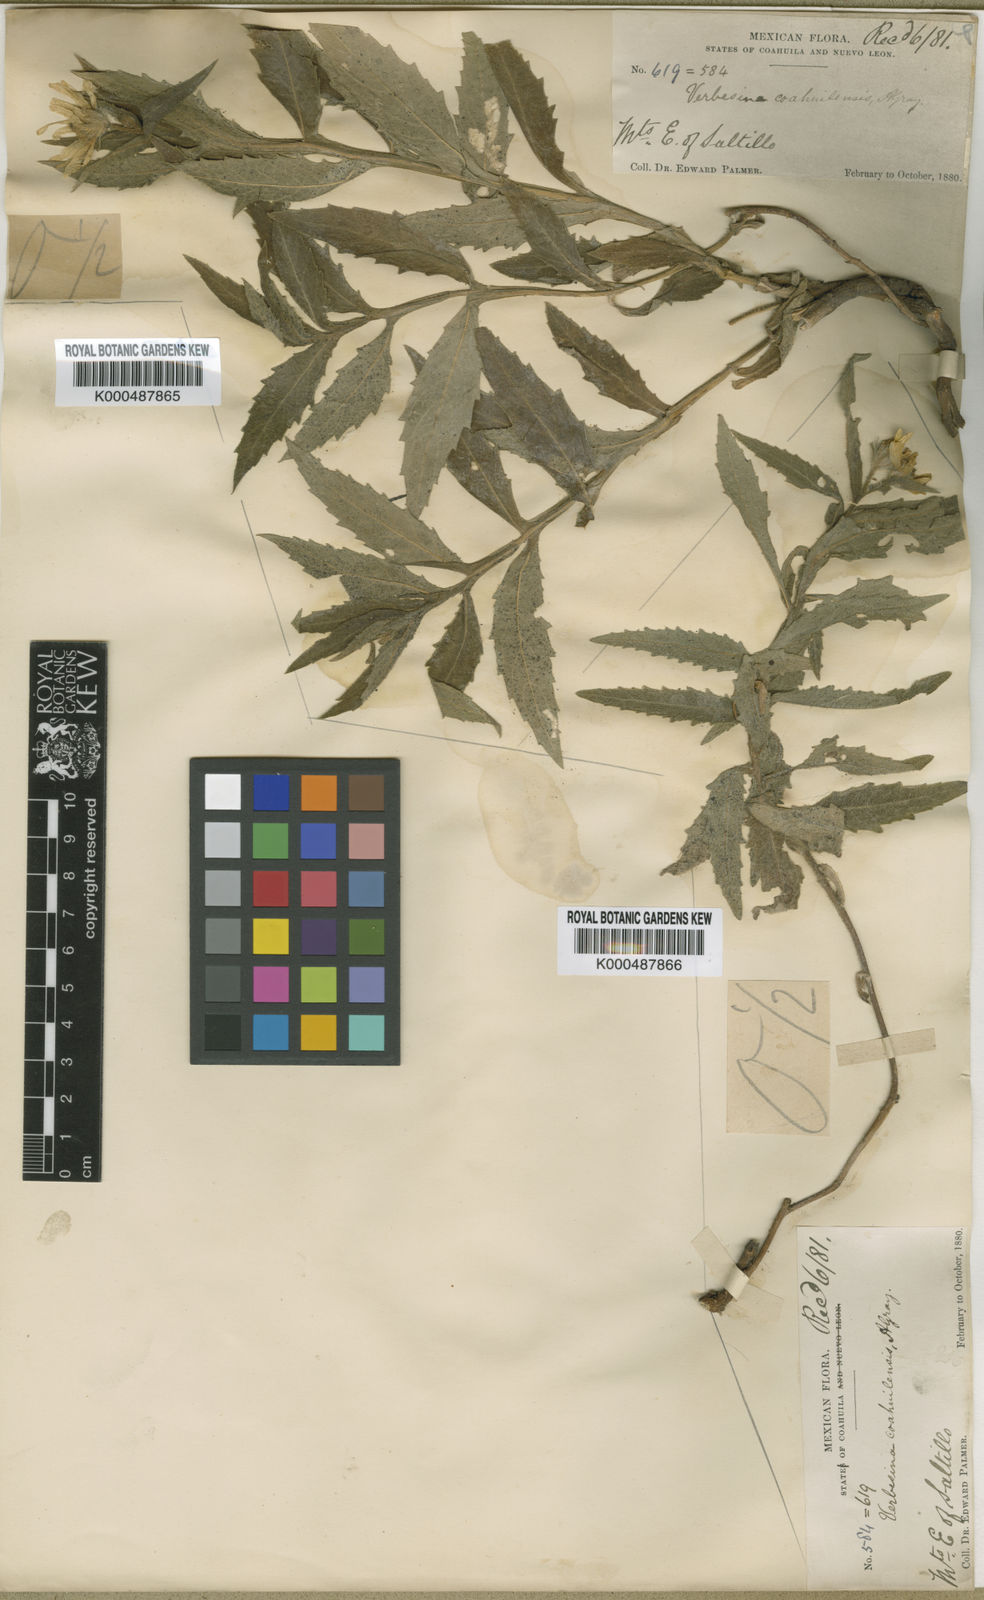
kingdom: Plantae
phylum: Tracheophyta
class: Magnoliopsida
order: Asterales
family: Asteraceae
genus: Verbesina
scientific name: Verbesina coahuilensis
